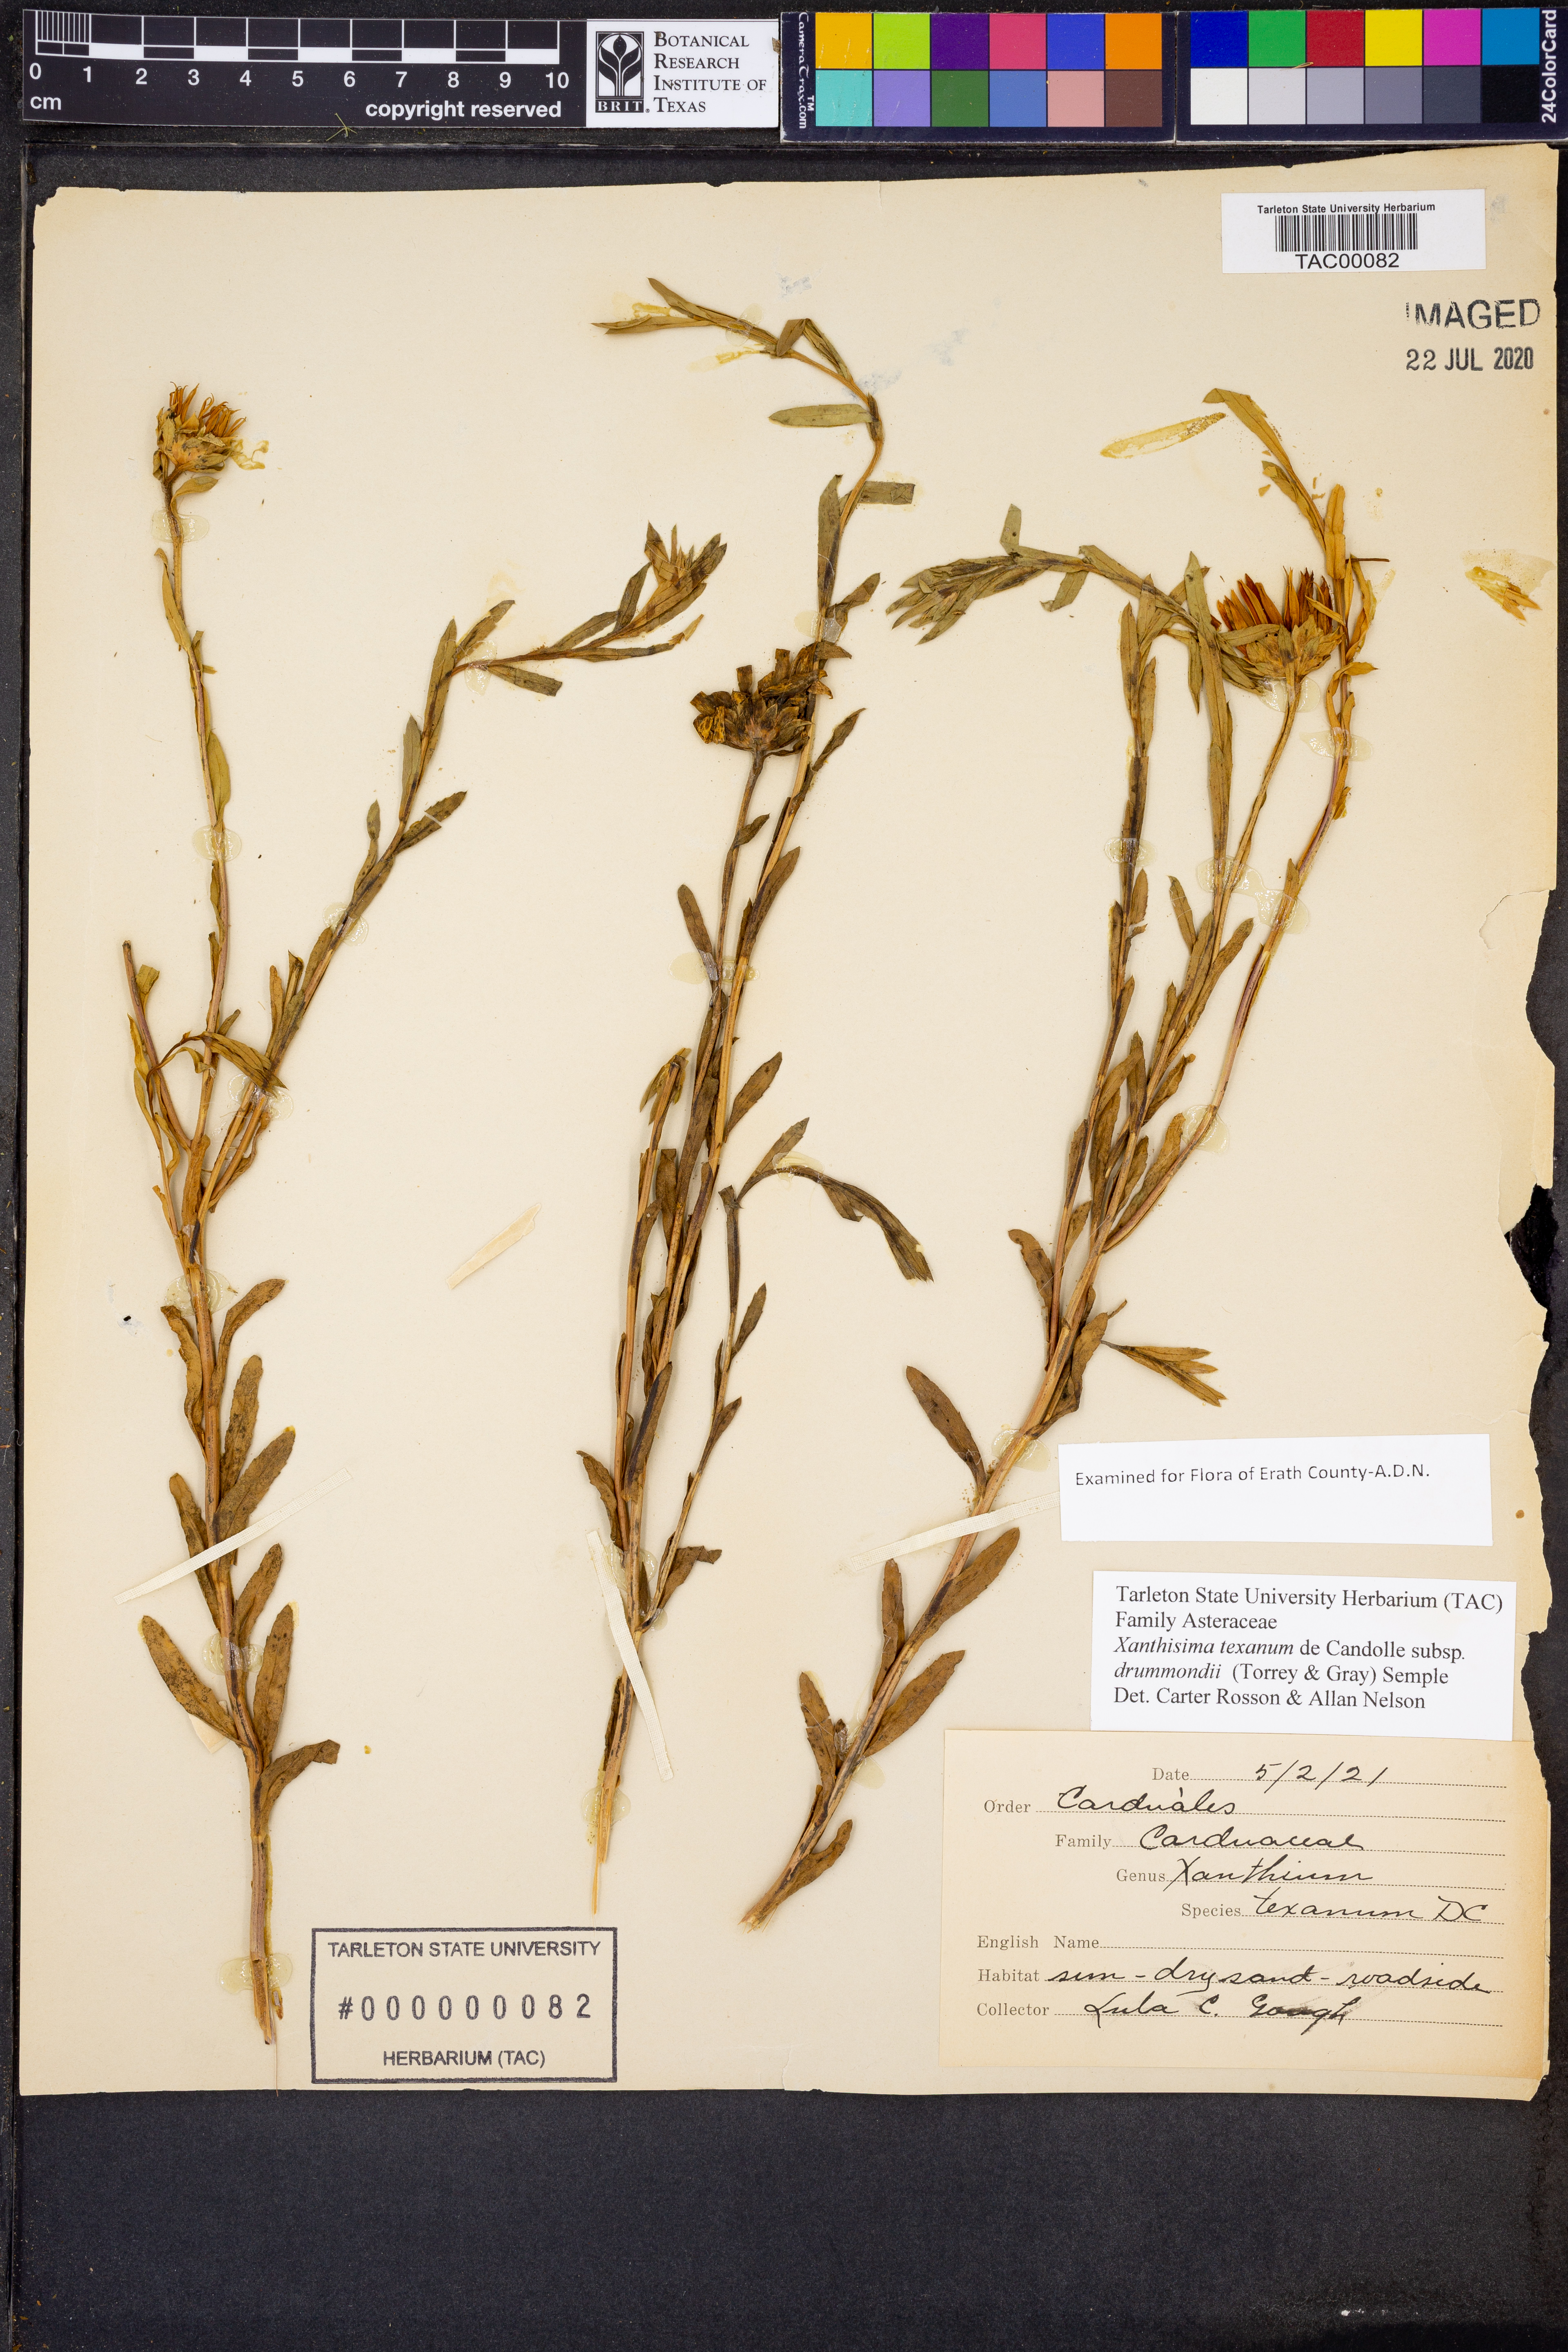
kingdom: Plantae
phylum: Tracheophyta
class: Magnoliopsida
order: Asterales
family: Asteraceae
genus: Xanthisma
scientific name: Xanthisma texanum
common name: Texas sleepy daisy
